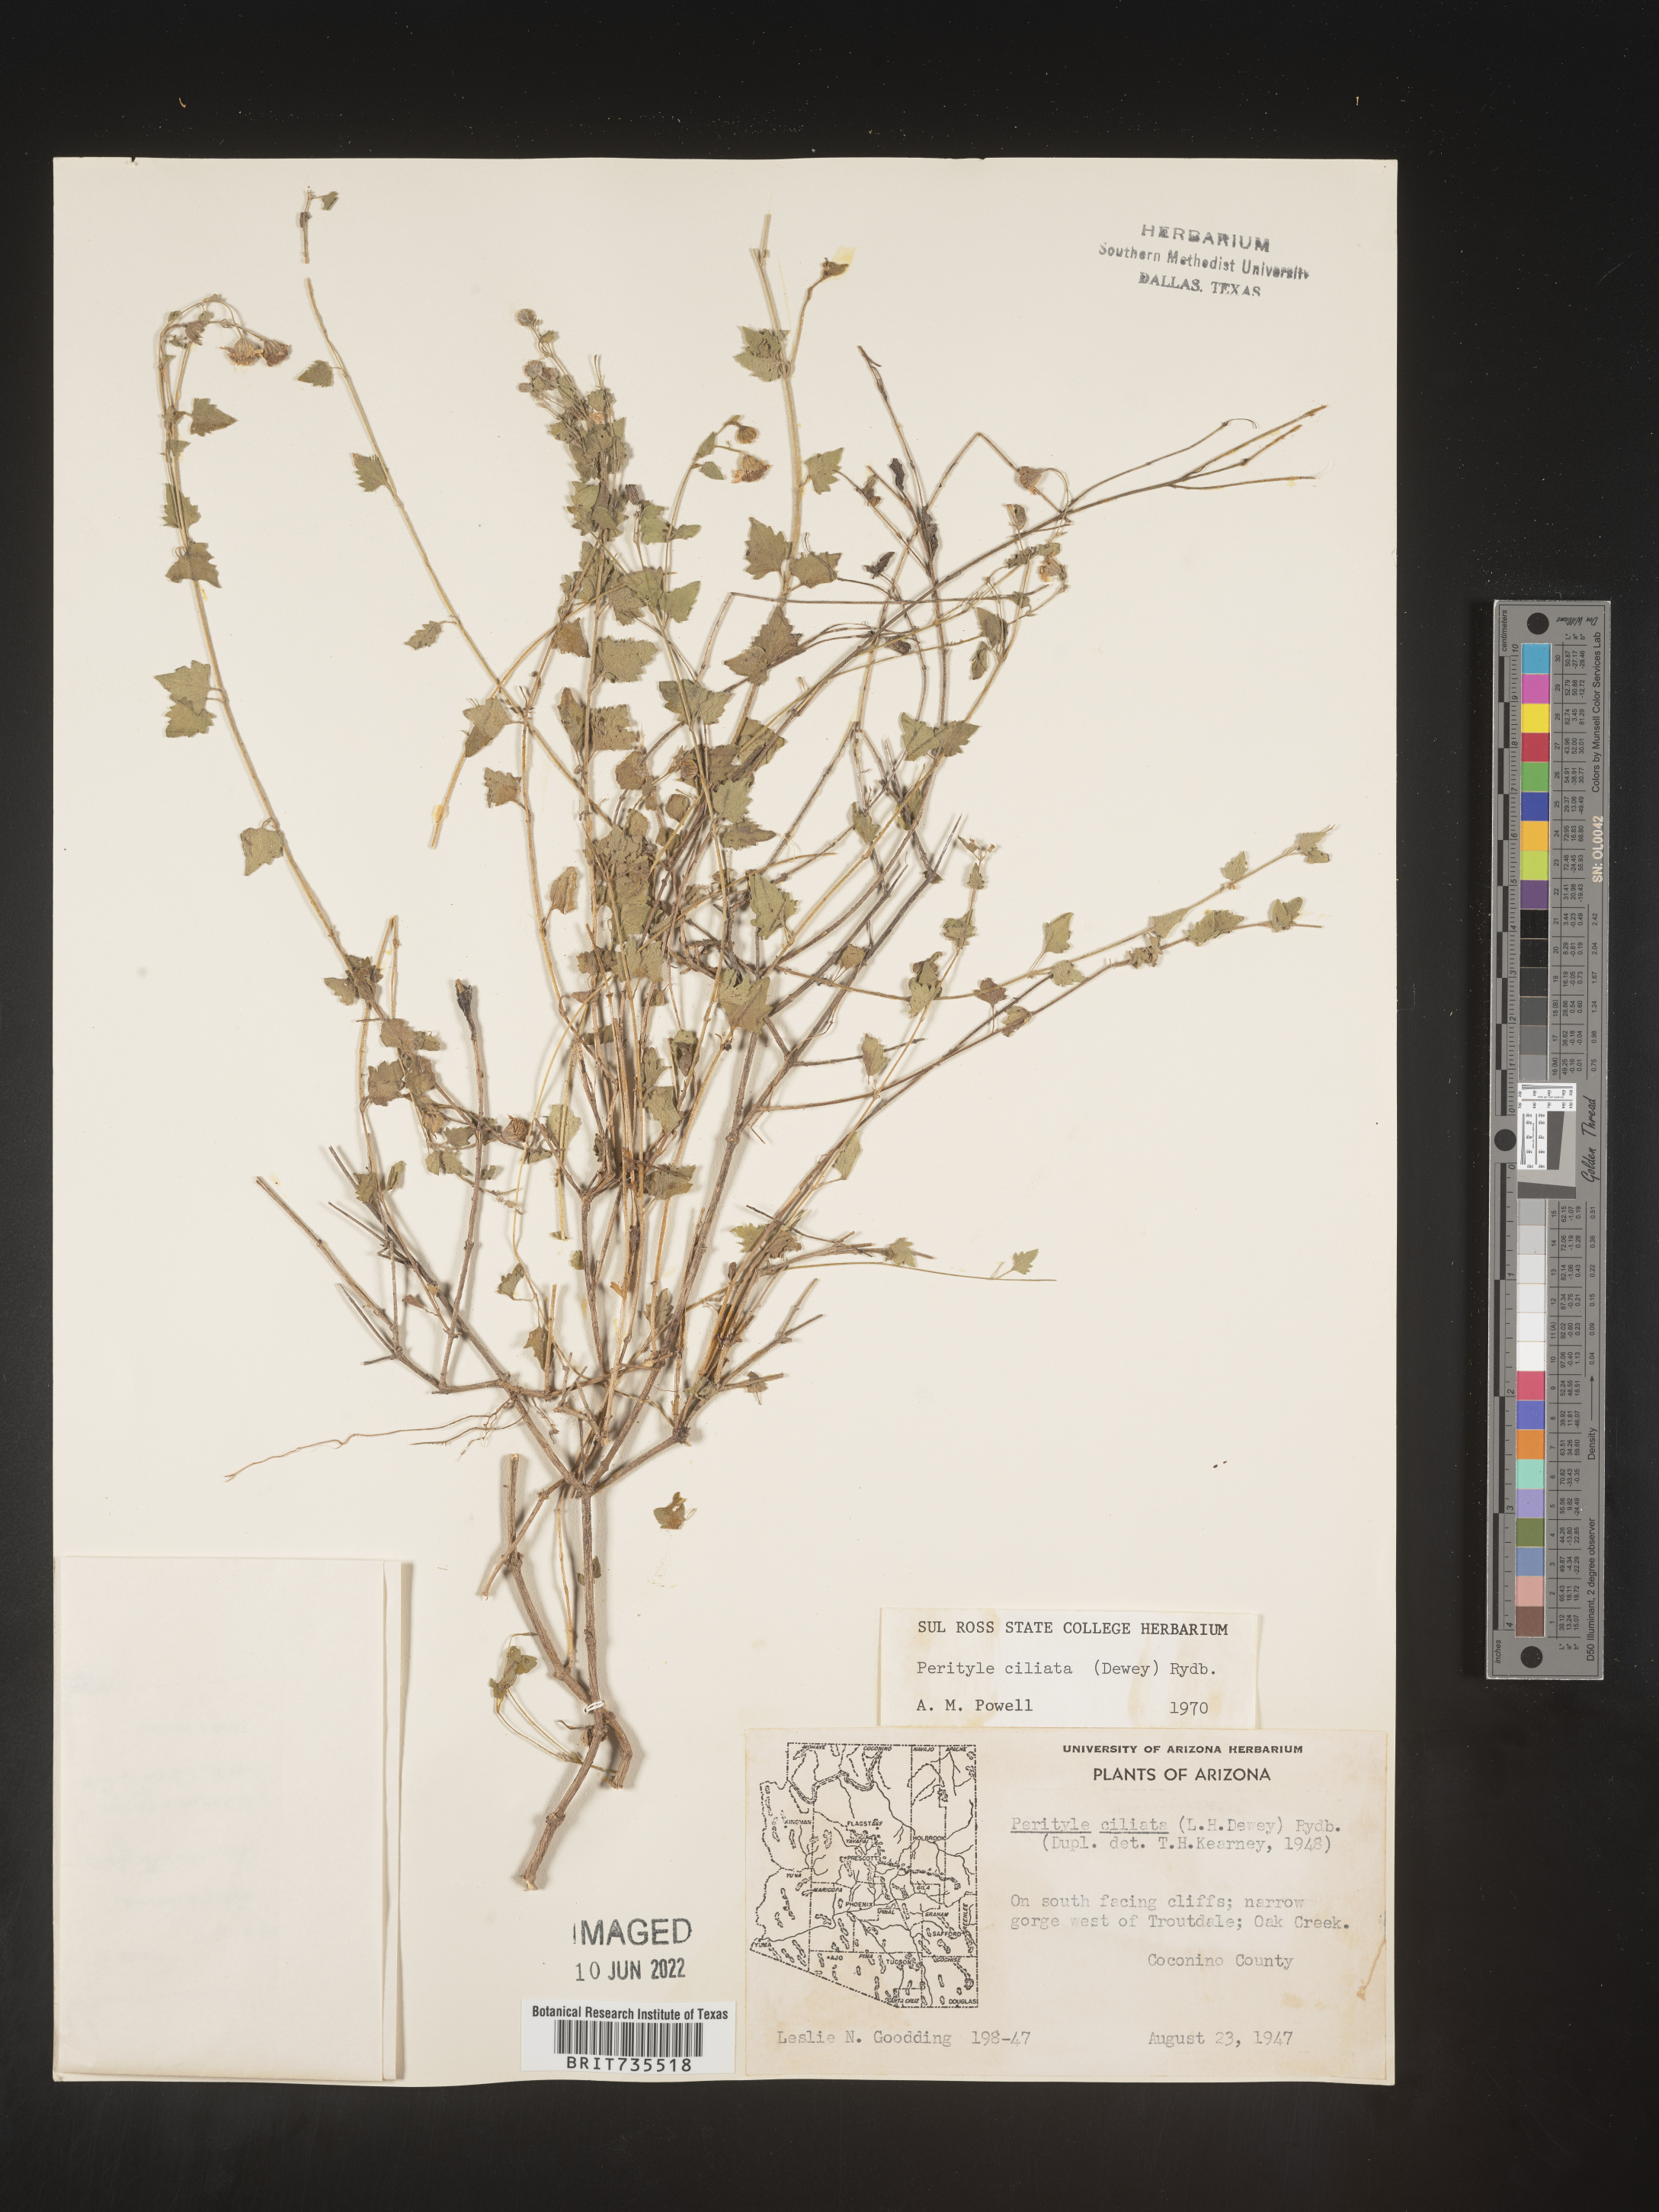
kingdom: Plantae
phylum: Tracheophyta
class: Magnoliopsida
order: Asterales
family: Asteraceae
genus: Perityle
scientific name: Perityle
